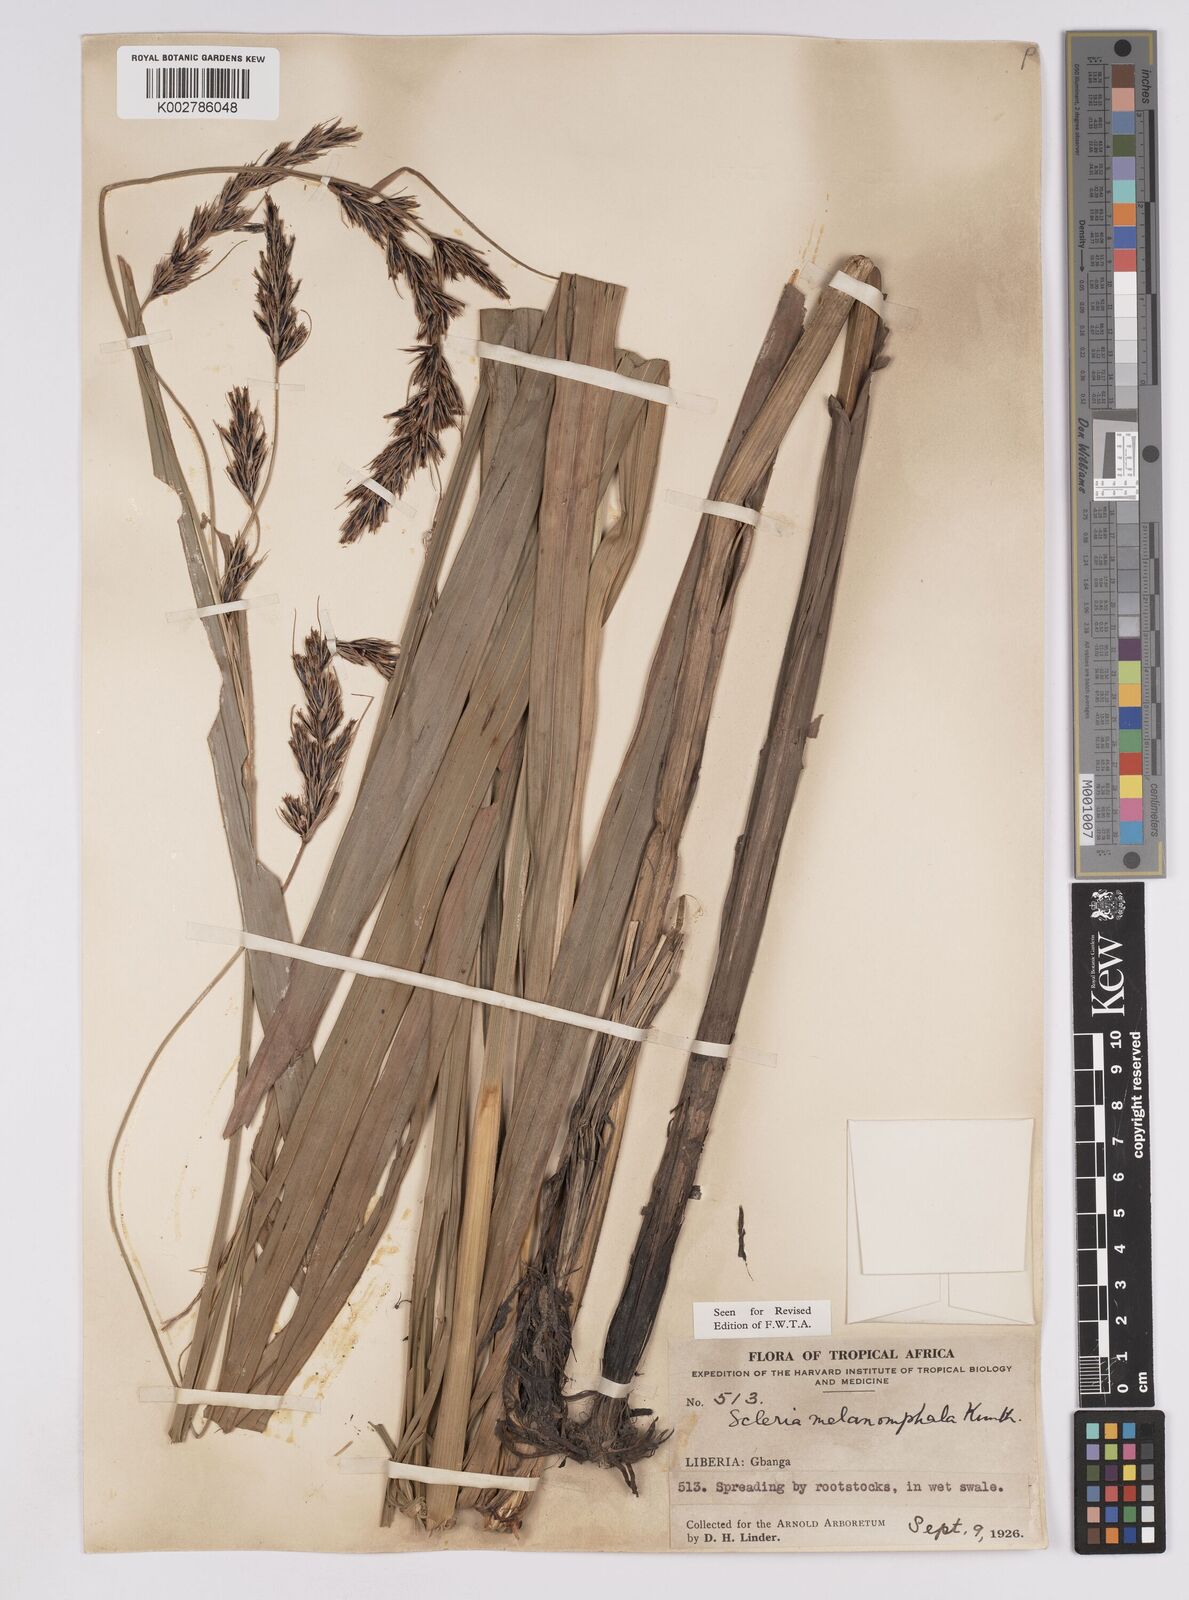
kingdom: Plantae
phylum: Tracheophyta
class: Liliopsida
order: Poales
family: Cyperaceae
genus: Scleria
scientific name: Scleria melanomphala
